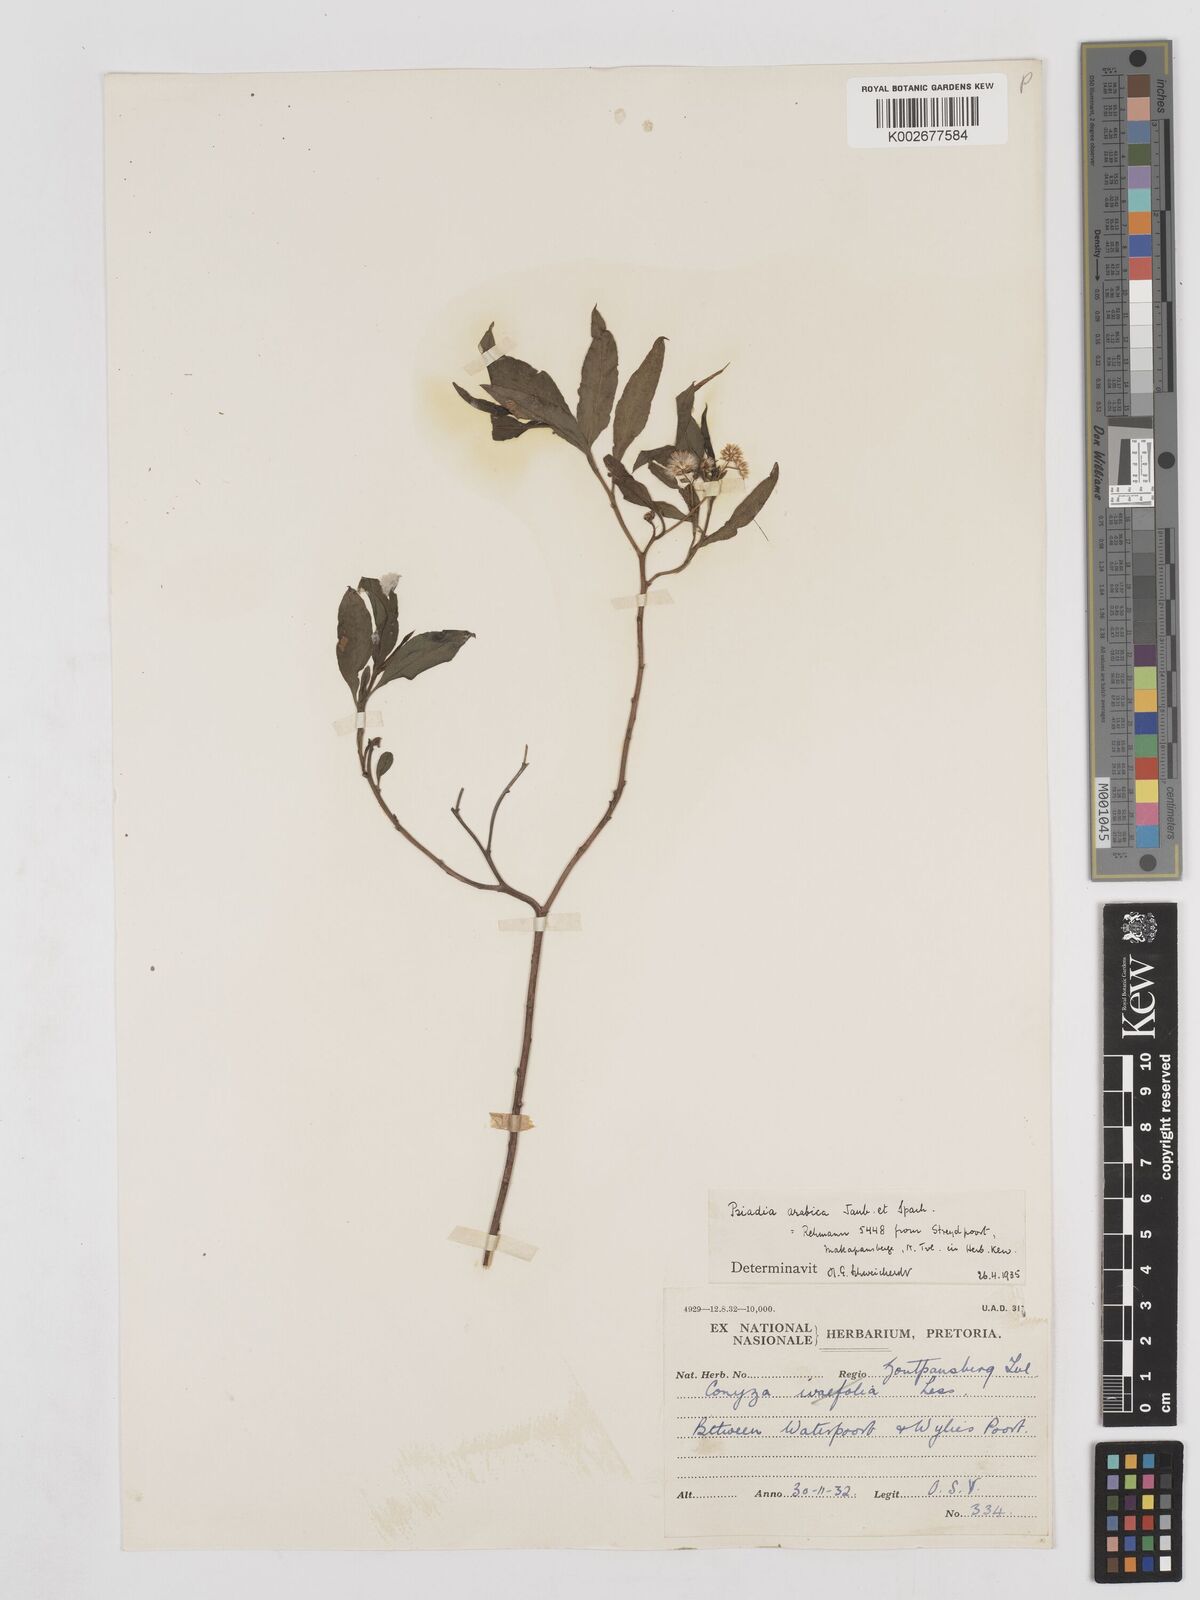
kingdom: Plantae
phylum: Tracheophyta
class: Magnoliopsida
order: Asterales
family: Asteraceae
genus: Psiadia
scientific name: Psiadia punctulata
